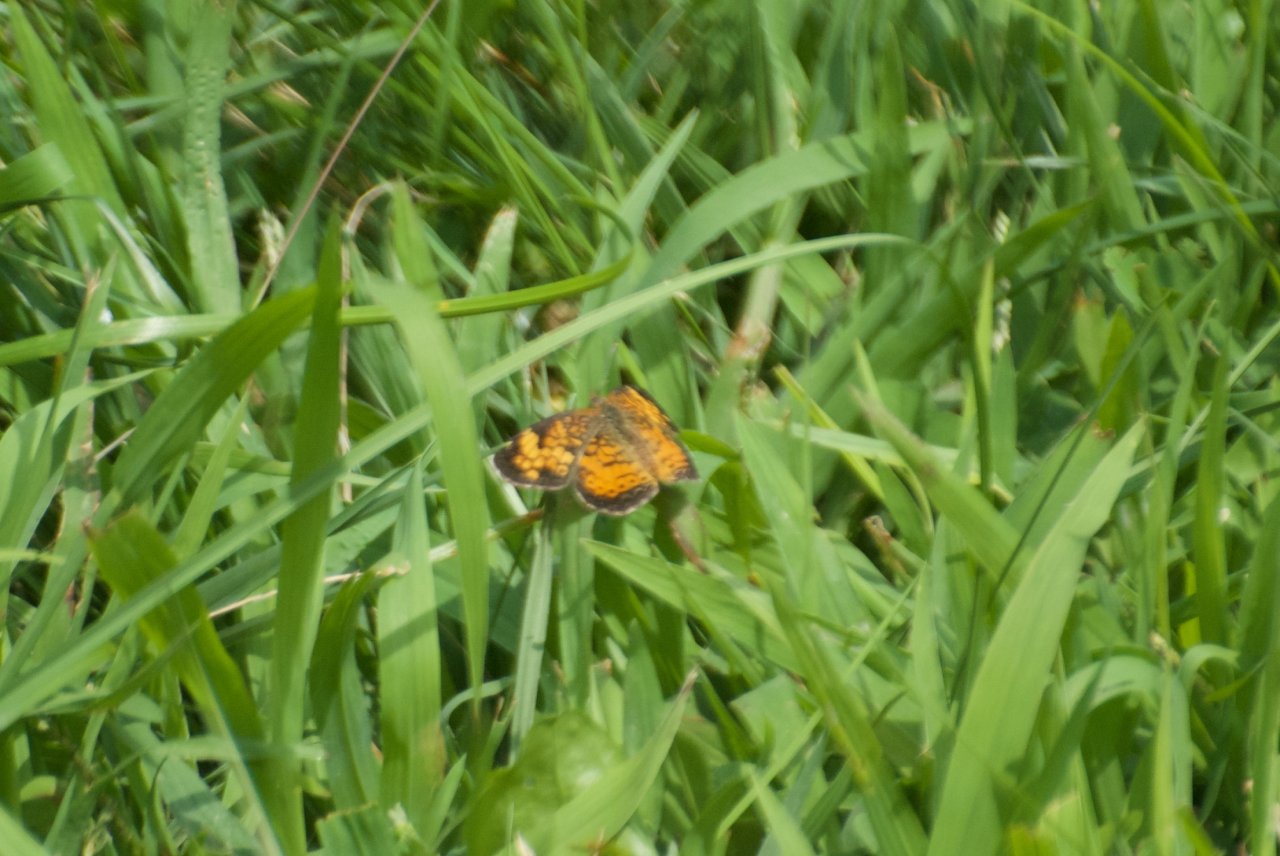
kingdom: Animalia
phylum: Arthropoda
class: Insecta
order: Lepidoptera
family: Nymphalidae
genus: Phyciodes
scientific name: Phyciodes tharos
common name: Pearl Crescent
